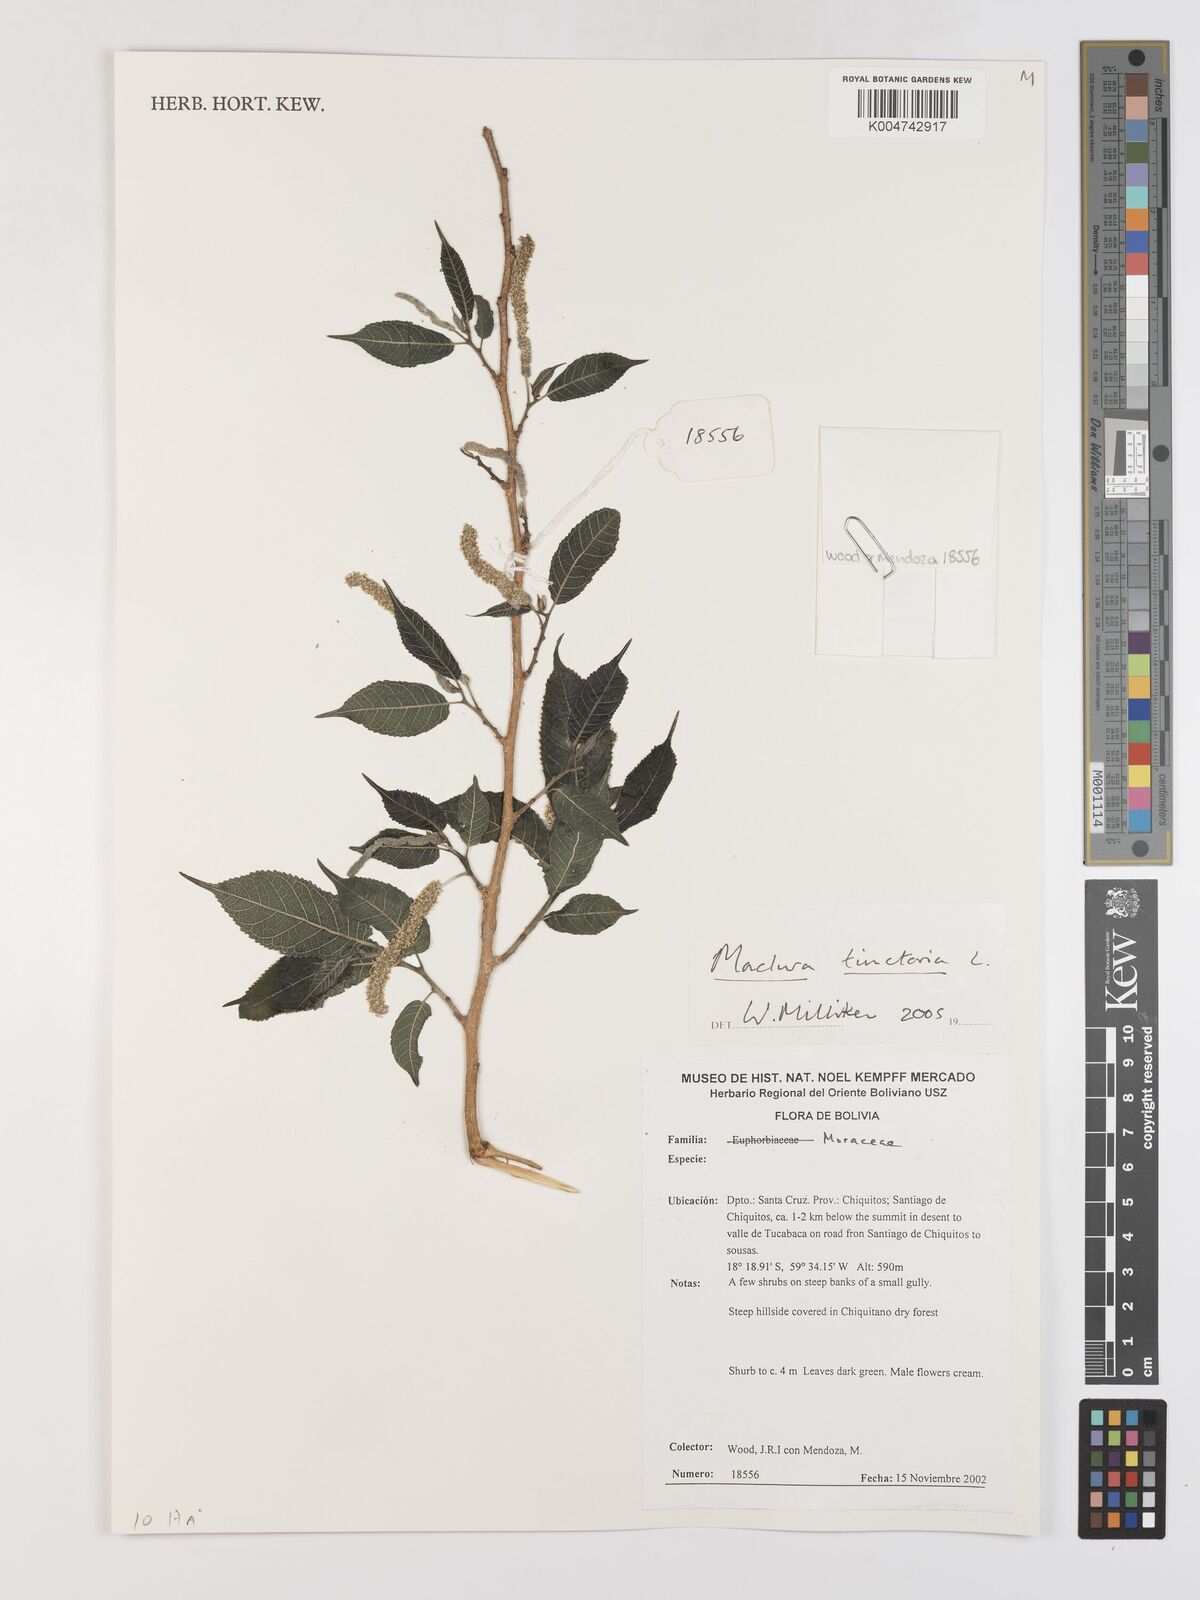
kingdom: Plantae
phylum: Tracheophyta
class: Magnoliopsida
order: Rosales
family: Moraceae
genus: Maclura
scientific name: Maclura tinctoria
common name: Old fustic
